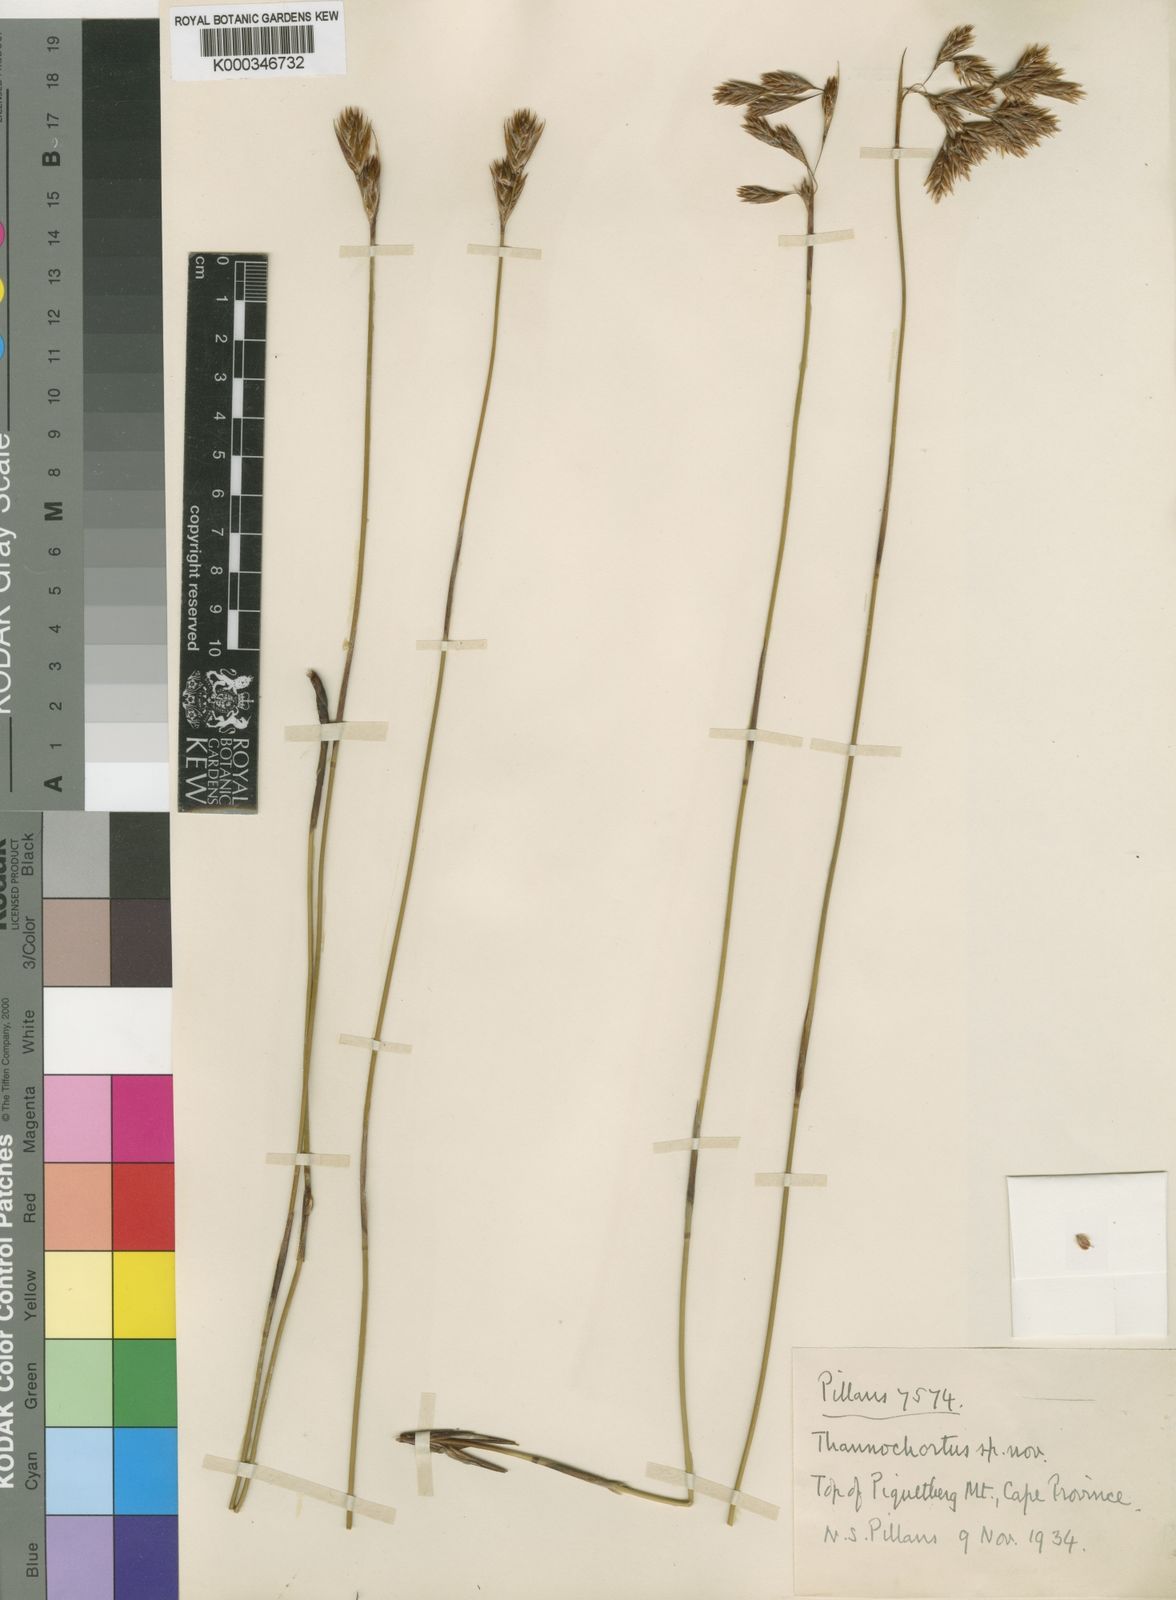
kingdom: Plantae
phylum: Tracheophyta
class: Liliopsida
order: Poales
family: Restionaceae
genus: Thamnochortus
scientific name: Thamnochortus sporadicus
